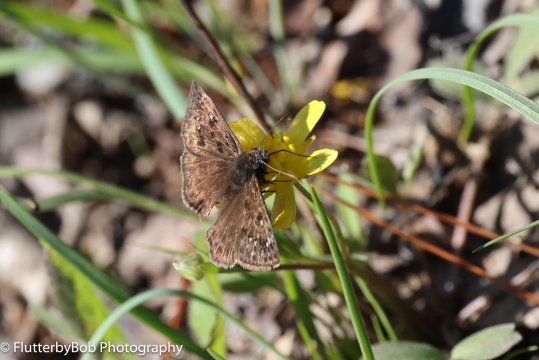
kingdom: Animalia
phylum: Arthropoda
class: Insecta
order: Lepidoptera
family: Hesperiidae
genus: Gesta
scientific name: Gesta
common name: Horace's Duskywing
